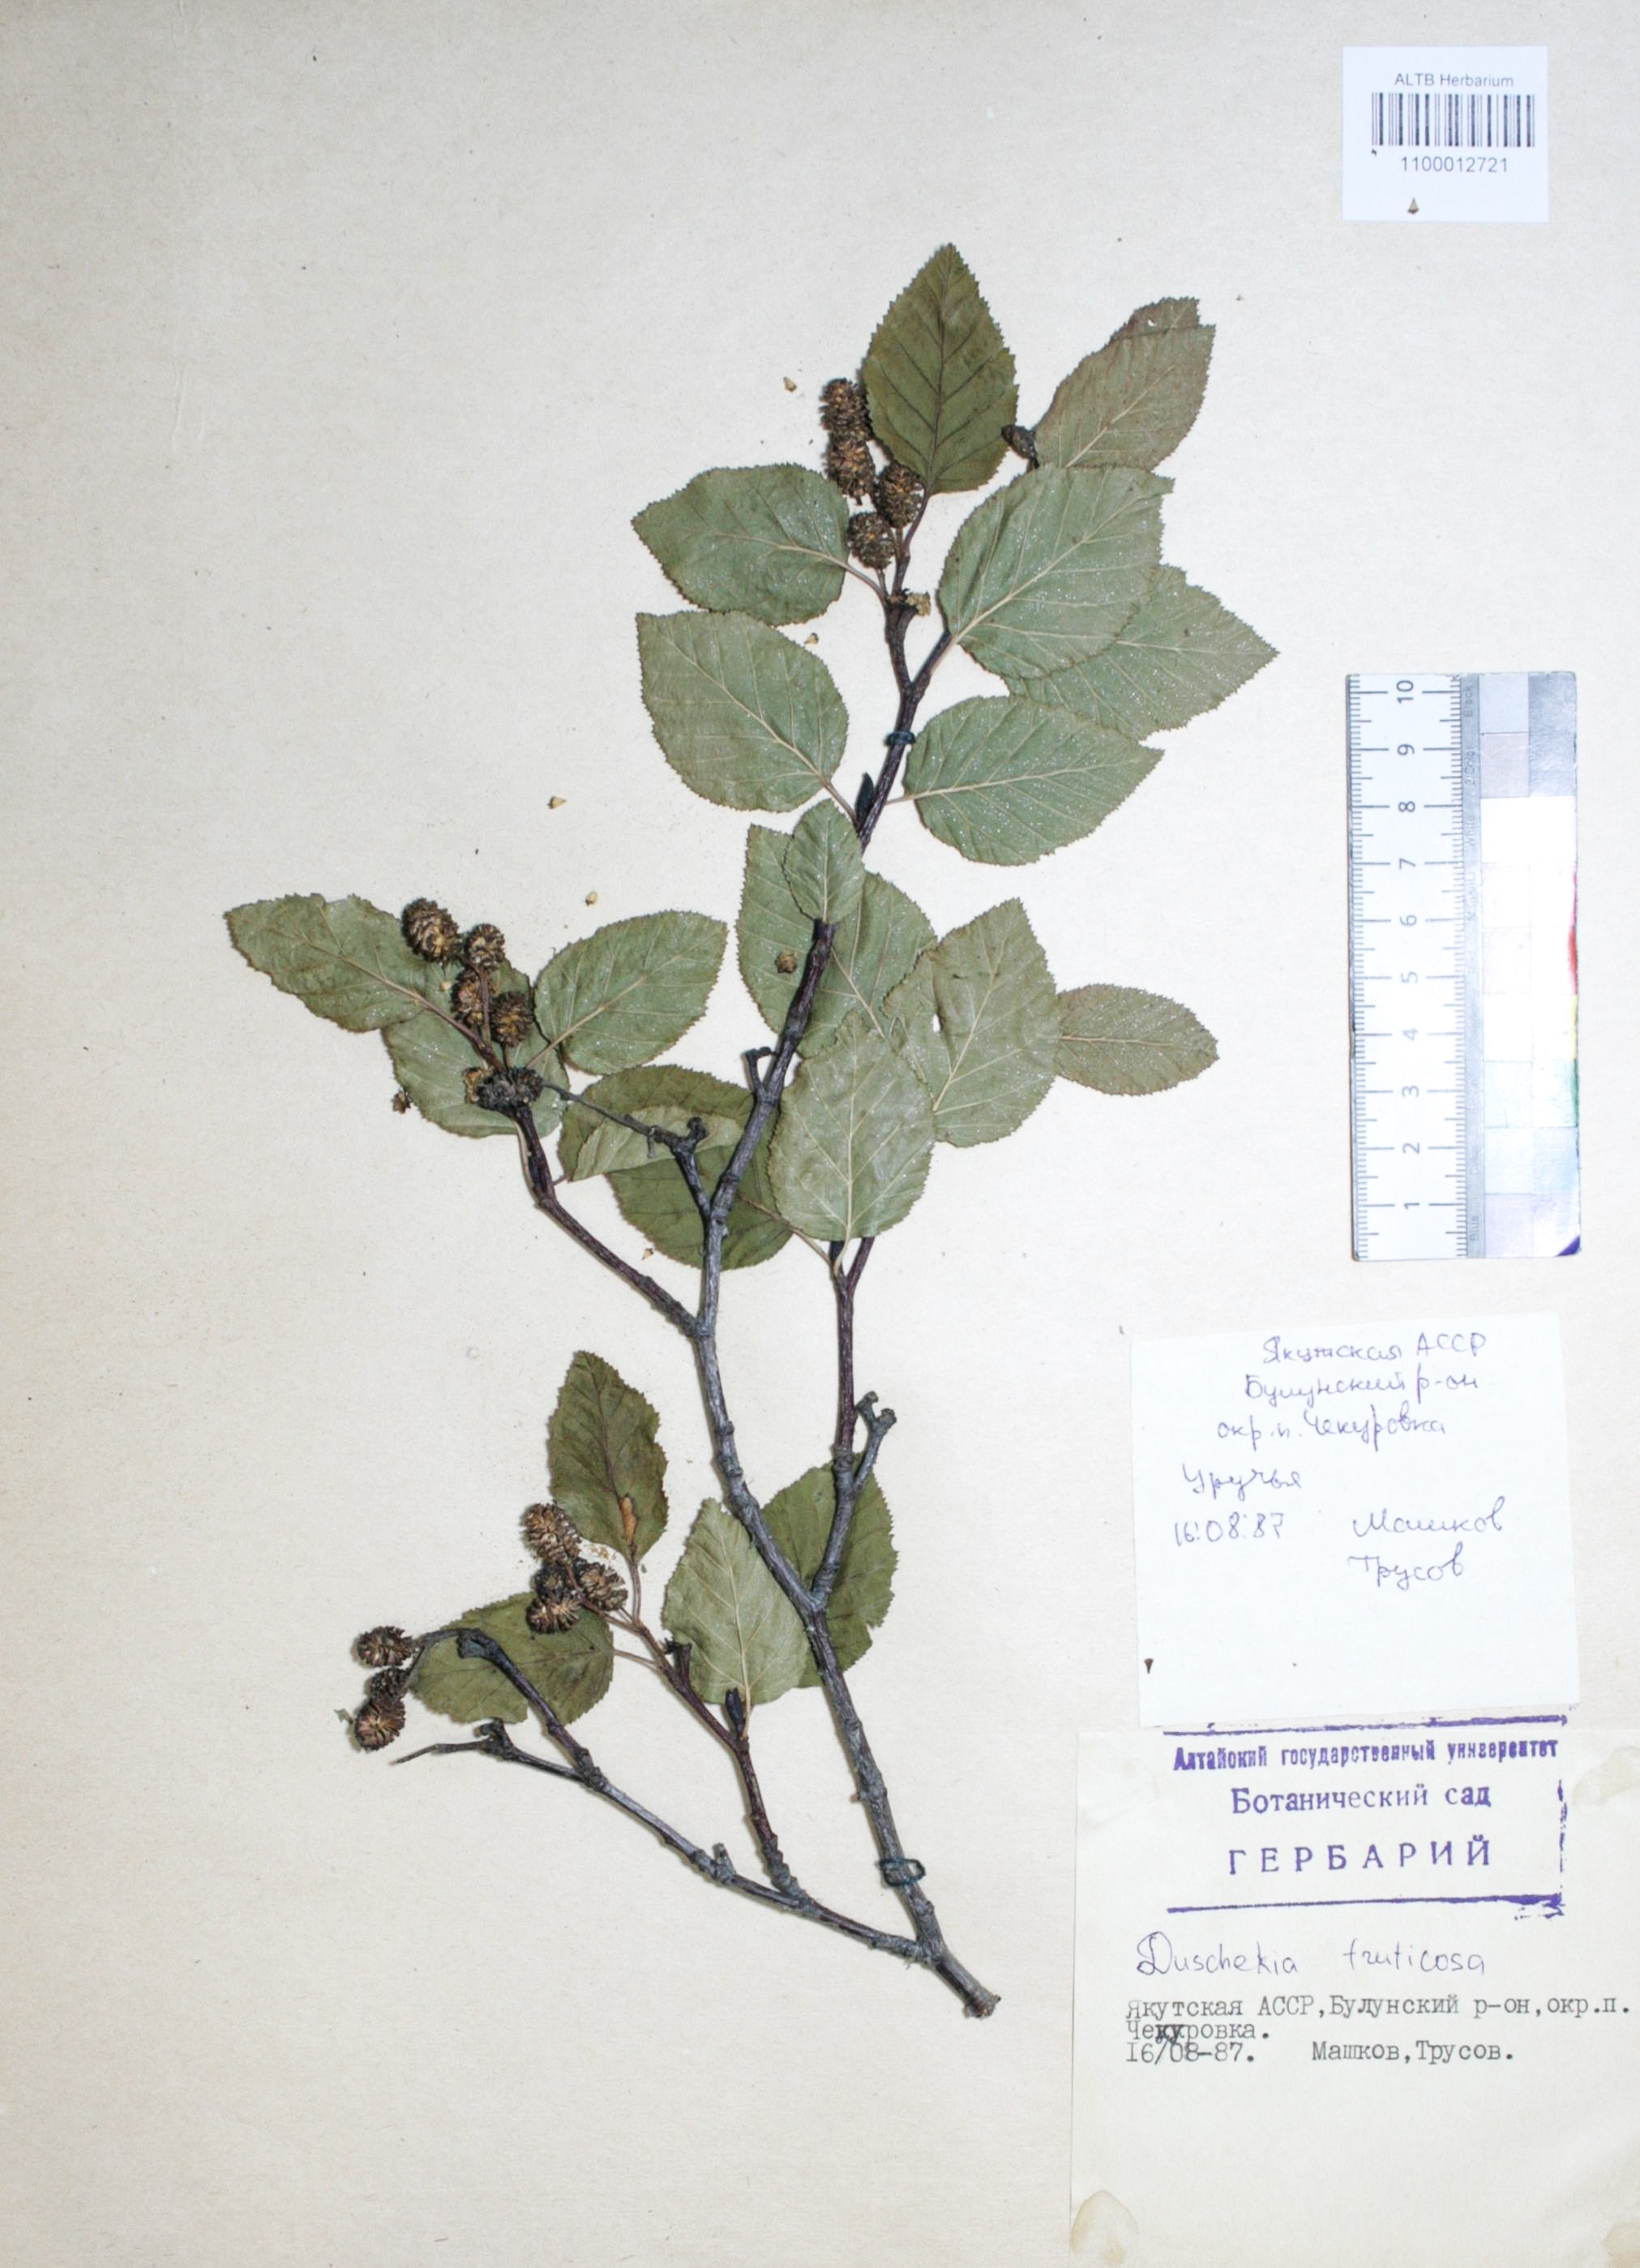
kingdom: Plantae
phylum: Tracheophyta
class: Magnoliopsida
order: Fagales
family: Betulaceae
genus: Alnus
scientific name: Alnus alnobetula
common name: Green alder
